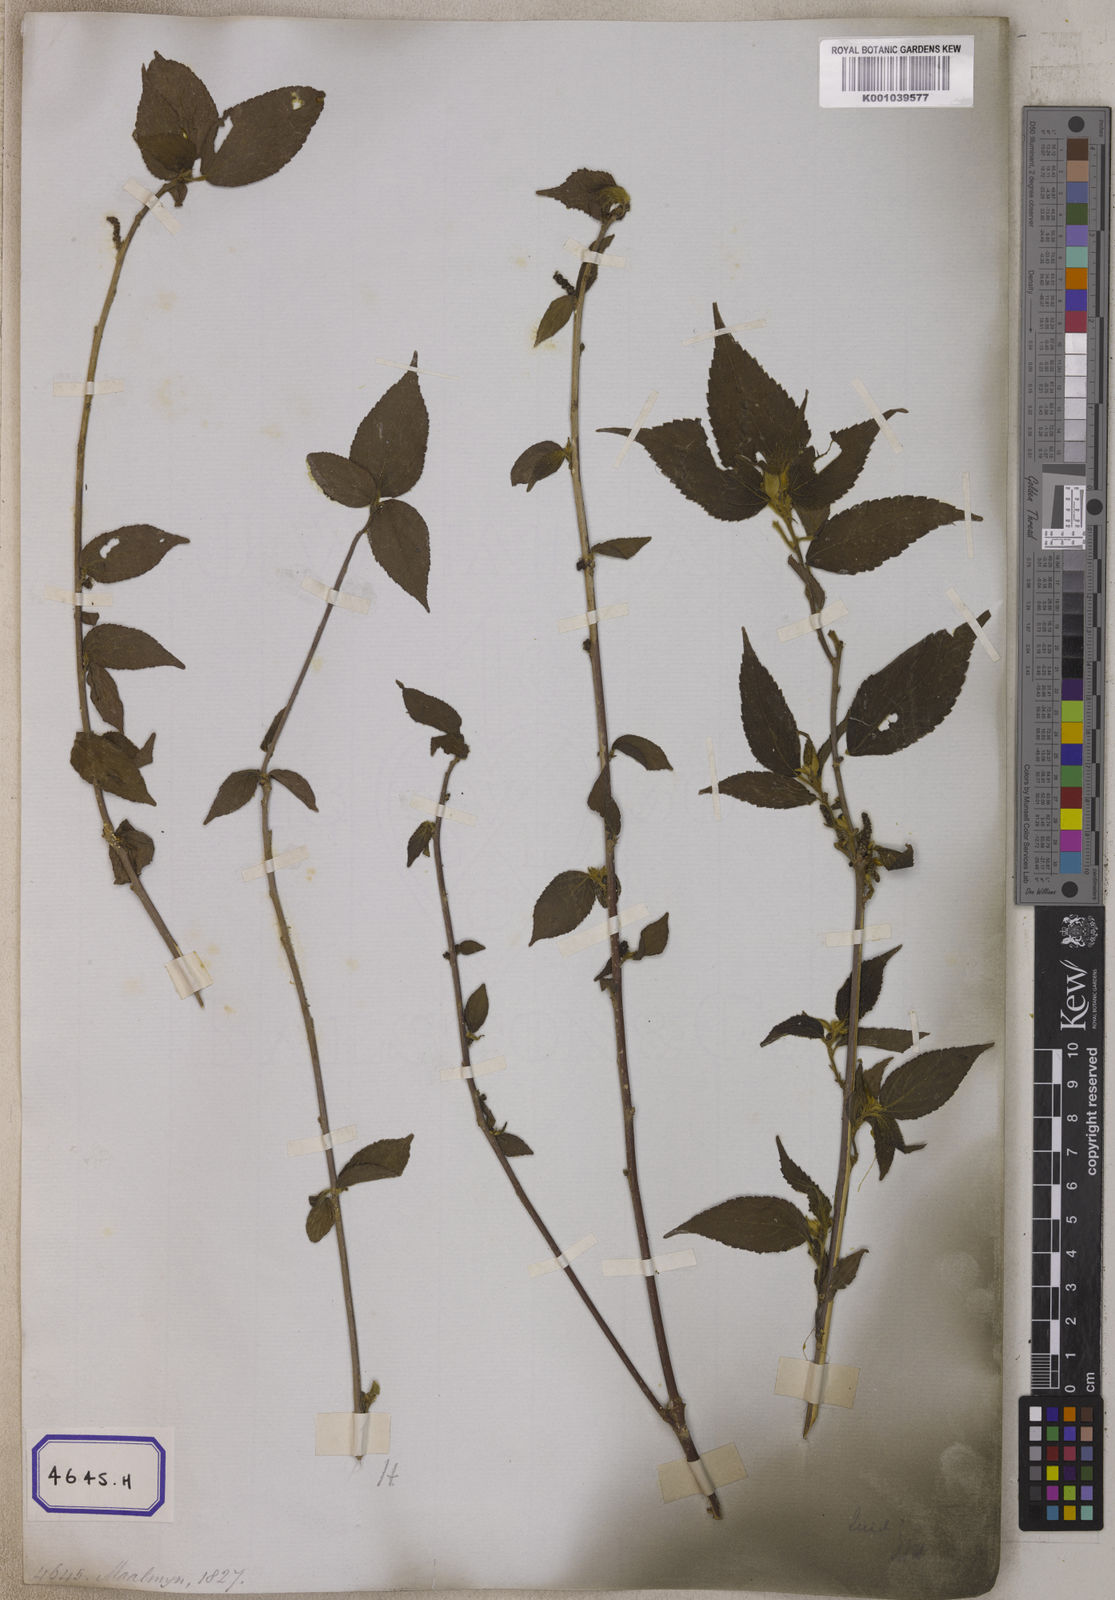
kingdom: Plantae
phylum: Tracheophyta
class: Magnoliopsida
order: Rosales
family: Moraceae
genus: Morus
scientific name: Morus indica
